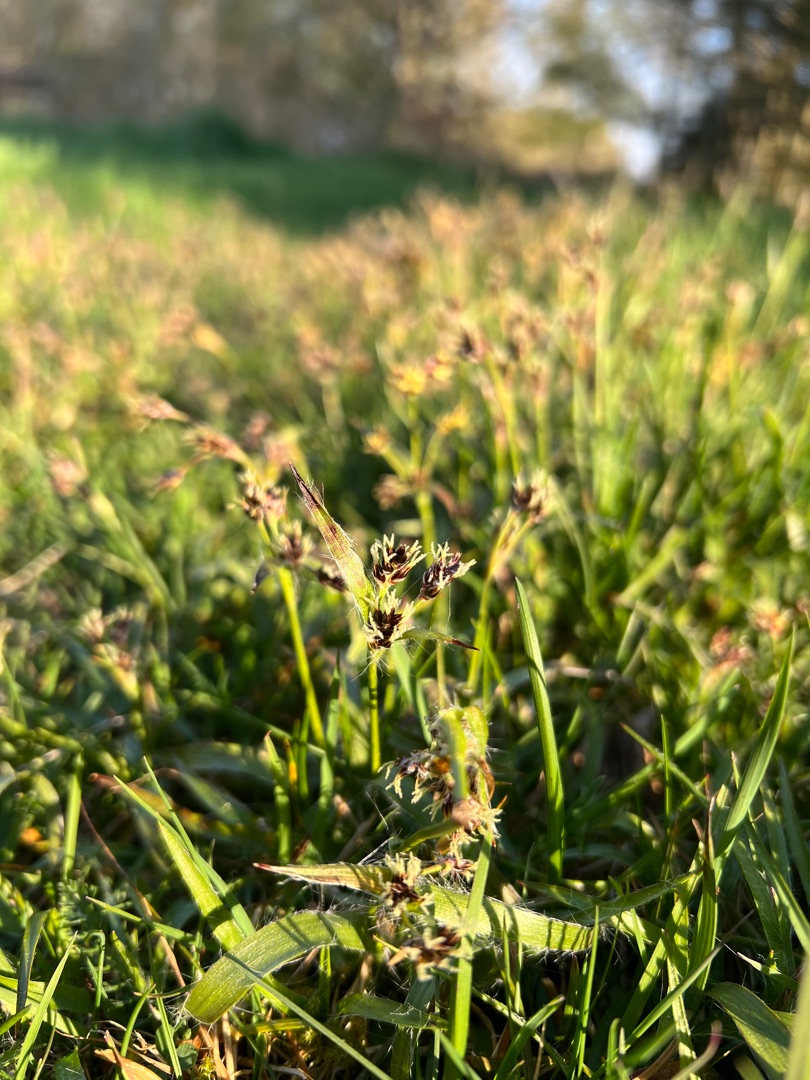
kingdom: Plantae
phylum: Tracheophyta
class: Liliopsida
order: Poales
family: Juncaceae
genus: Luzula
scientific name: Luzula campestris
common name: Mark-frytle
